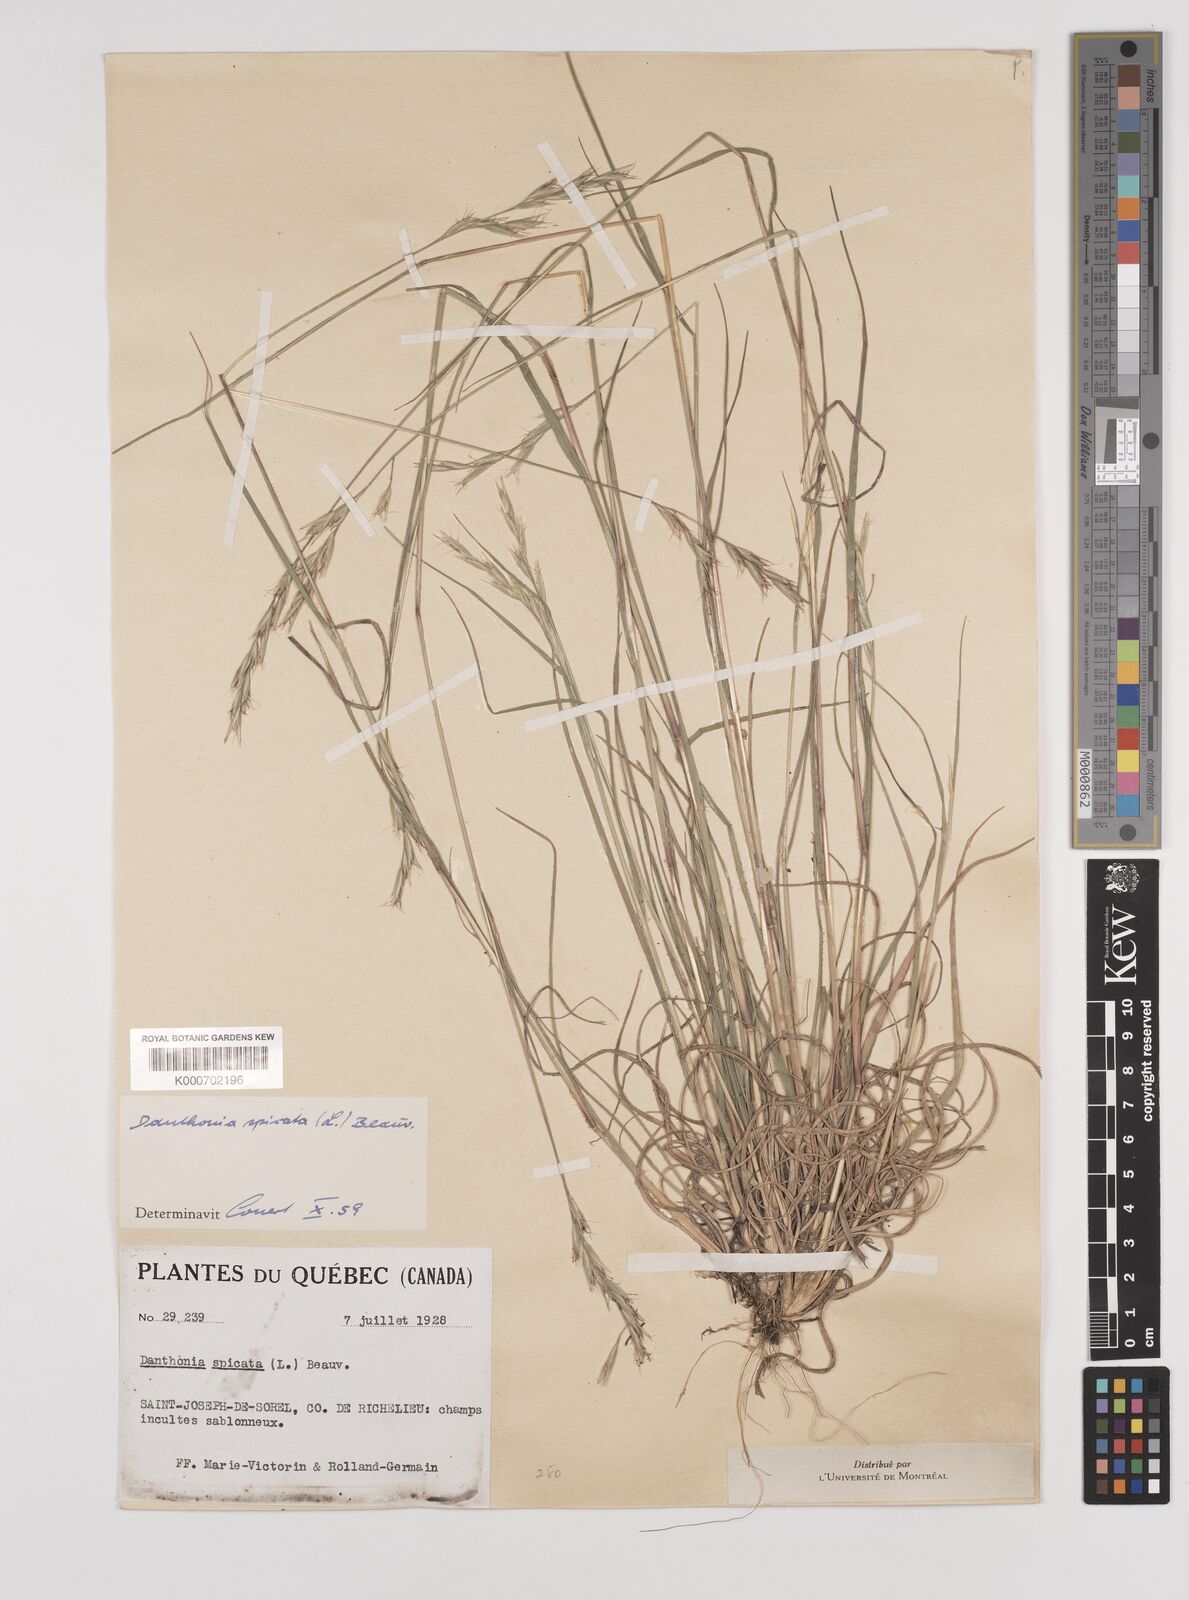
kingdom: Plantae
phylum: Tracheophyta
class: Liliopsida
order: Poales
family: Poaceae
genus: Danthonia
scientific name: Danthonia spicata
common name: Common wild oatgrass
